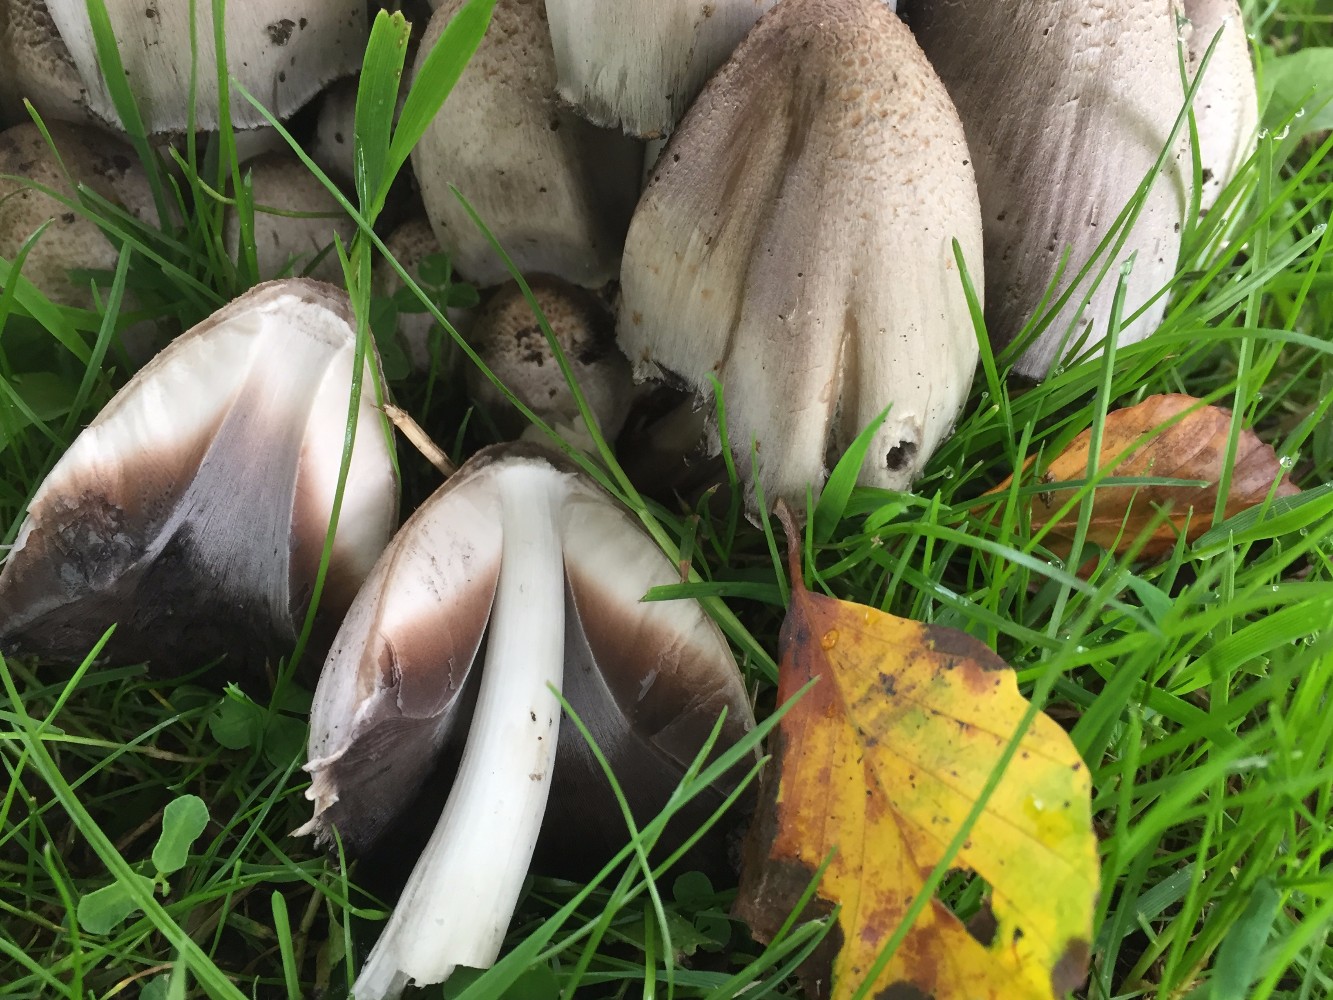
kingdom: Fungi
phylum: Basidiomycota
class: Agaricomycetes
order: Agaricales
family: Psathyrellaceae
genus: Coprinopsis
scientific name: Coprinopsis atramentaria
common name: almindelig blækhat
